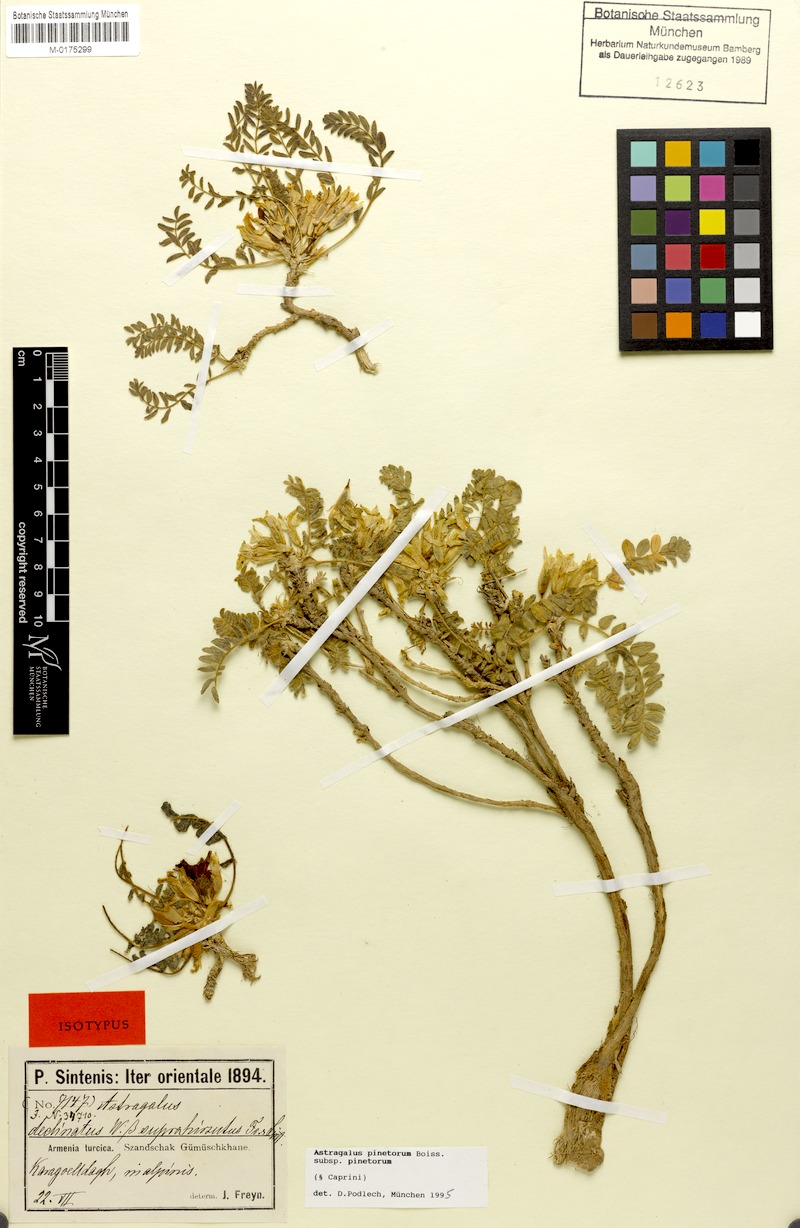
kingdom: Plantae
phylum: Tracheophyta
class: Magnoliopsida
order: Fabales
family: Fabaceae
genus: Astragalus
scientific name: Astragalus pinetorum
